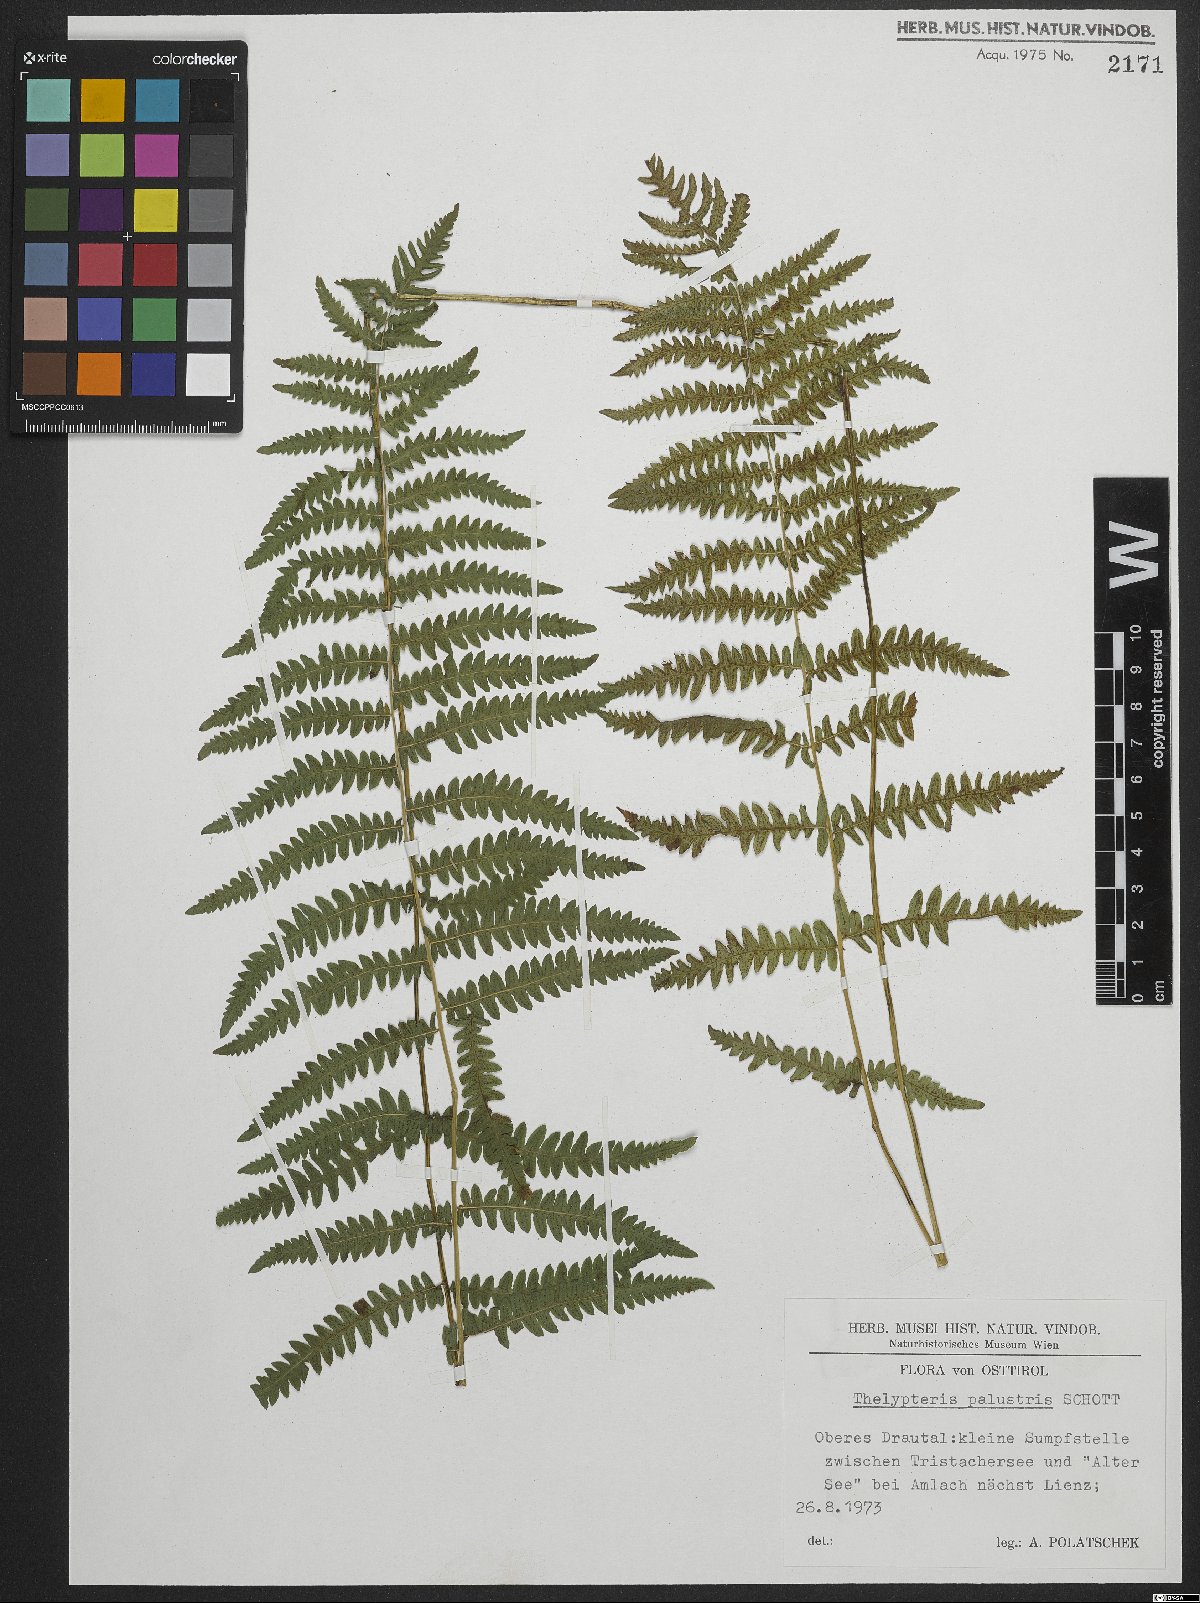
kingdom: Plantae
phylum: Tracheophyta
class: Polypodiopsida
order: Polypodiales
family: Thelypteridaceae
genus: Thelypteris
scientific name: Thelypteris palustris
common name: Marsh fern
